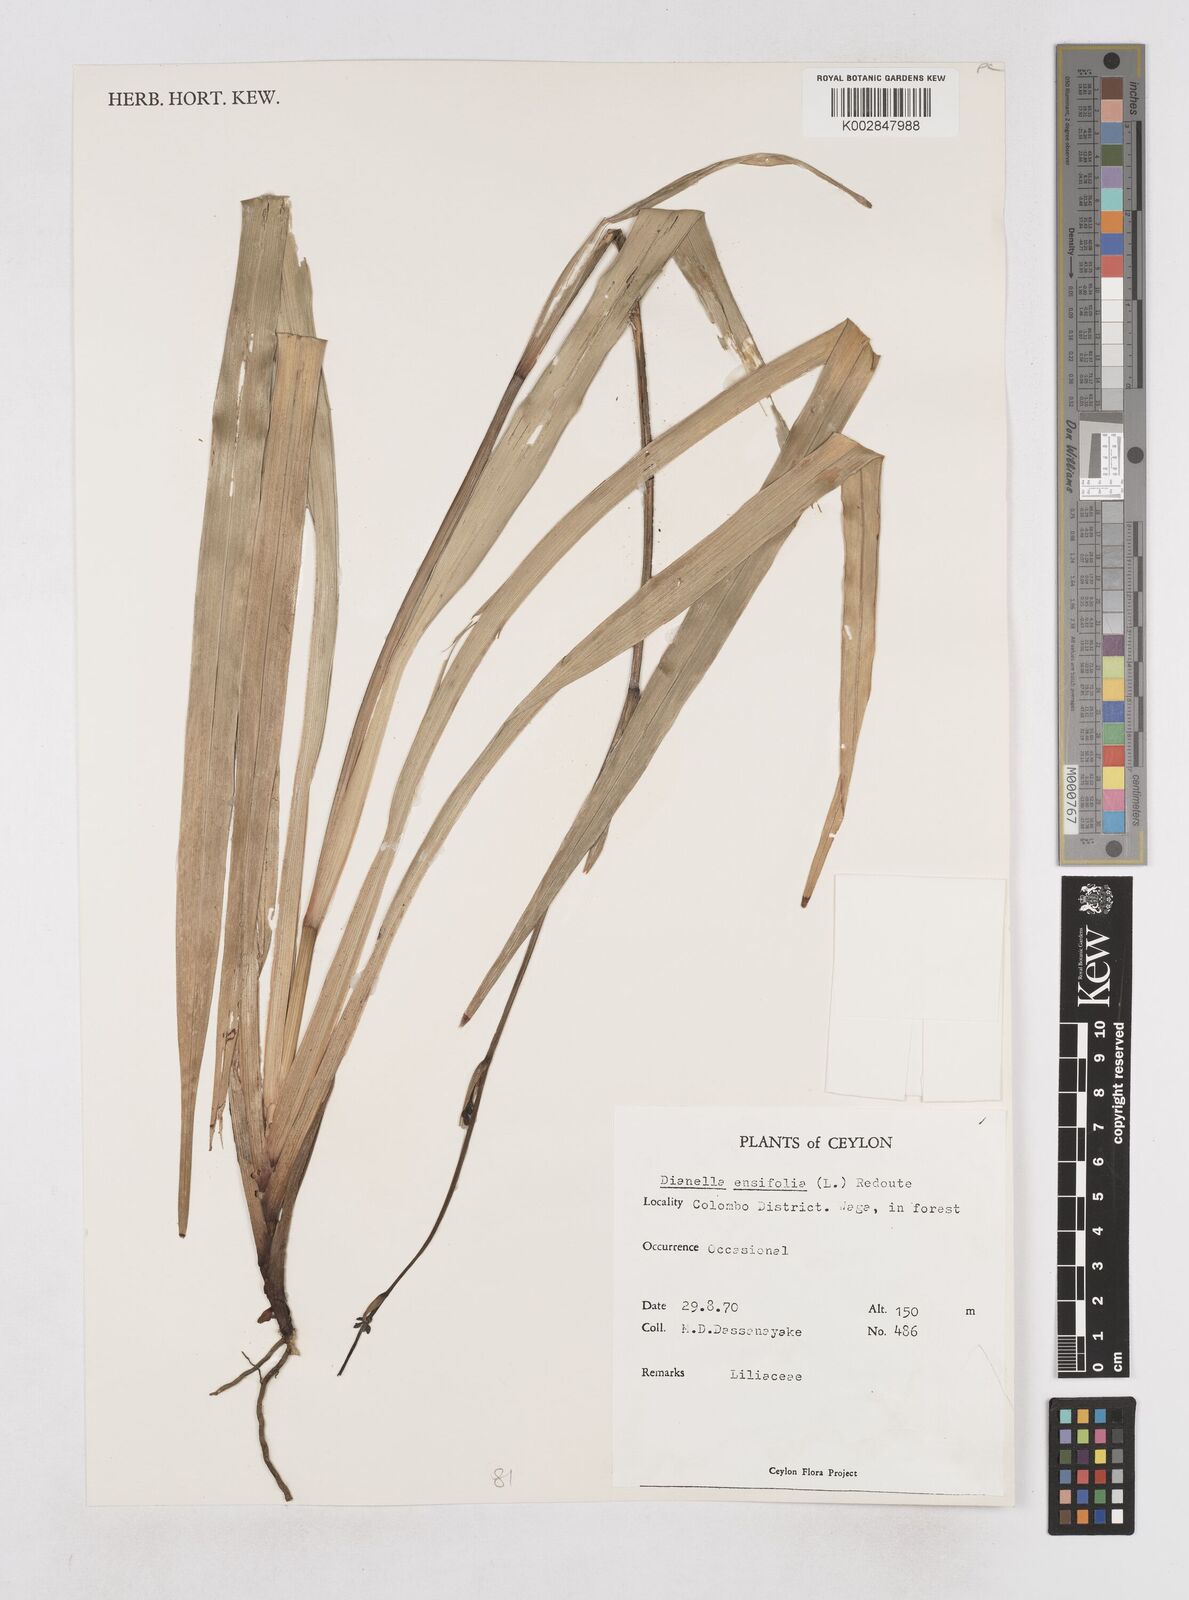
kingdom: Plantae
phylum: Tracheophyta
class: Liliopsida
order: Asparagales
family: Asphodelaceae
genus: Dianella
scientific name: Dianella ensifolia
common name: New zealand lilyplant
